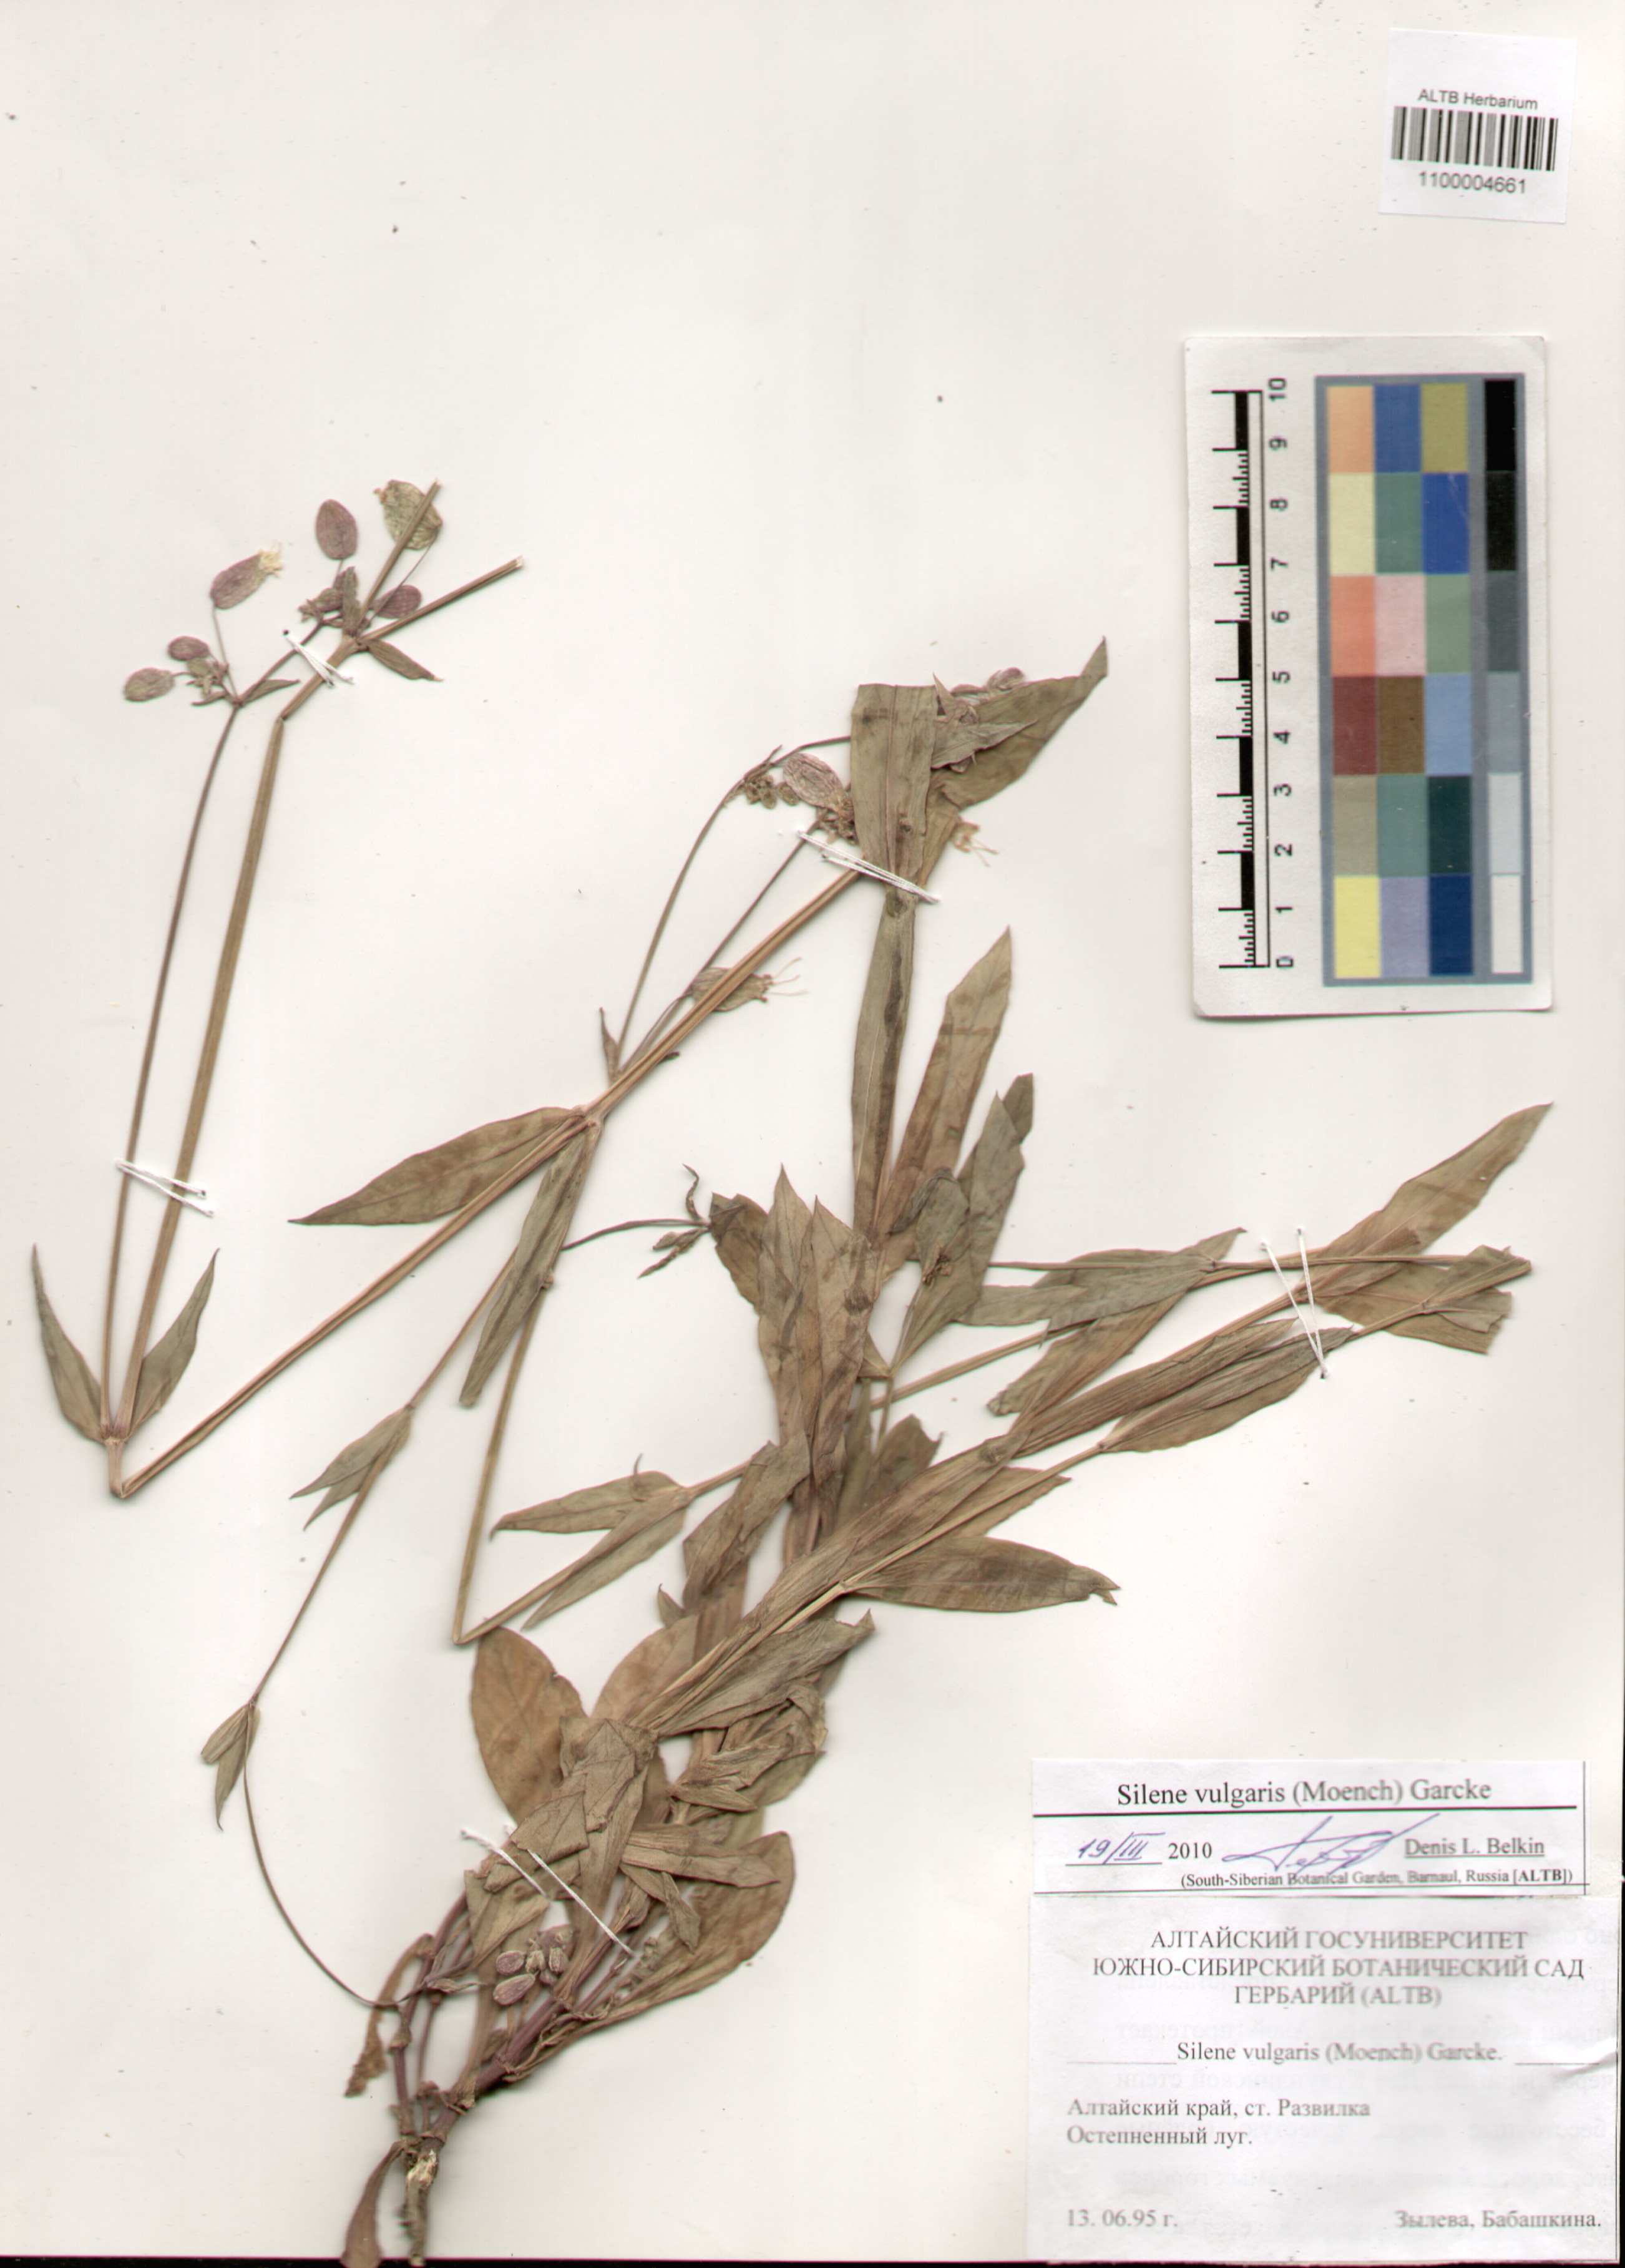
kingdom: Plantae
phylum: Tracheophyta
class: Magnoliopsida
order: Caryophyllales
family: Caryophyllaceae
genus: Silene
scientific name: Silene vulgaris
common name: Bladder campion
